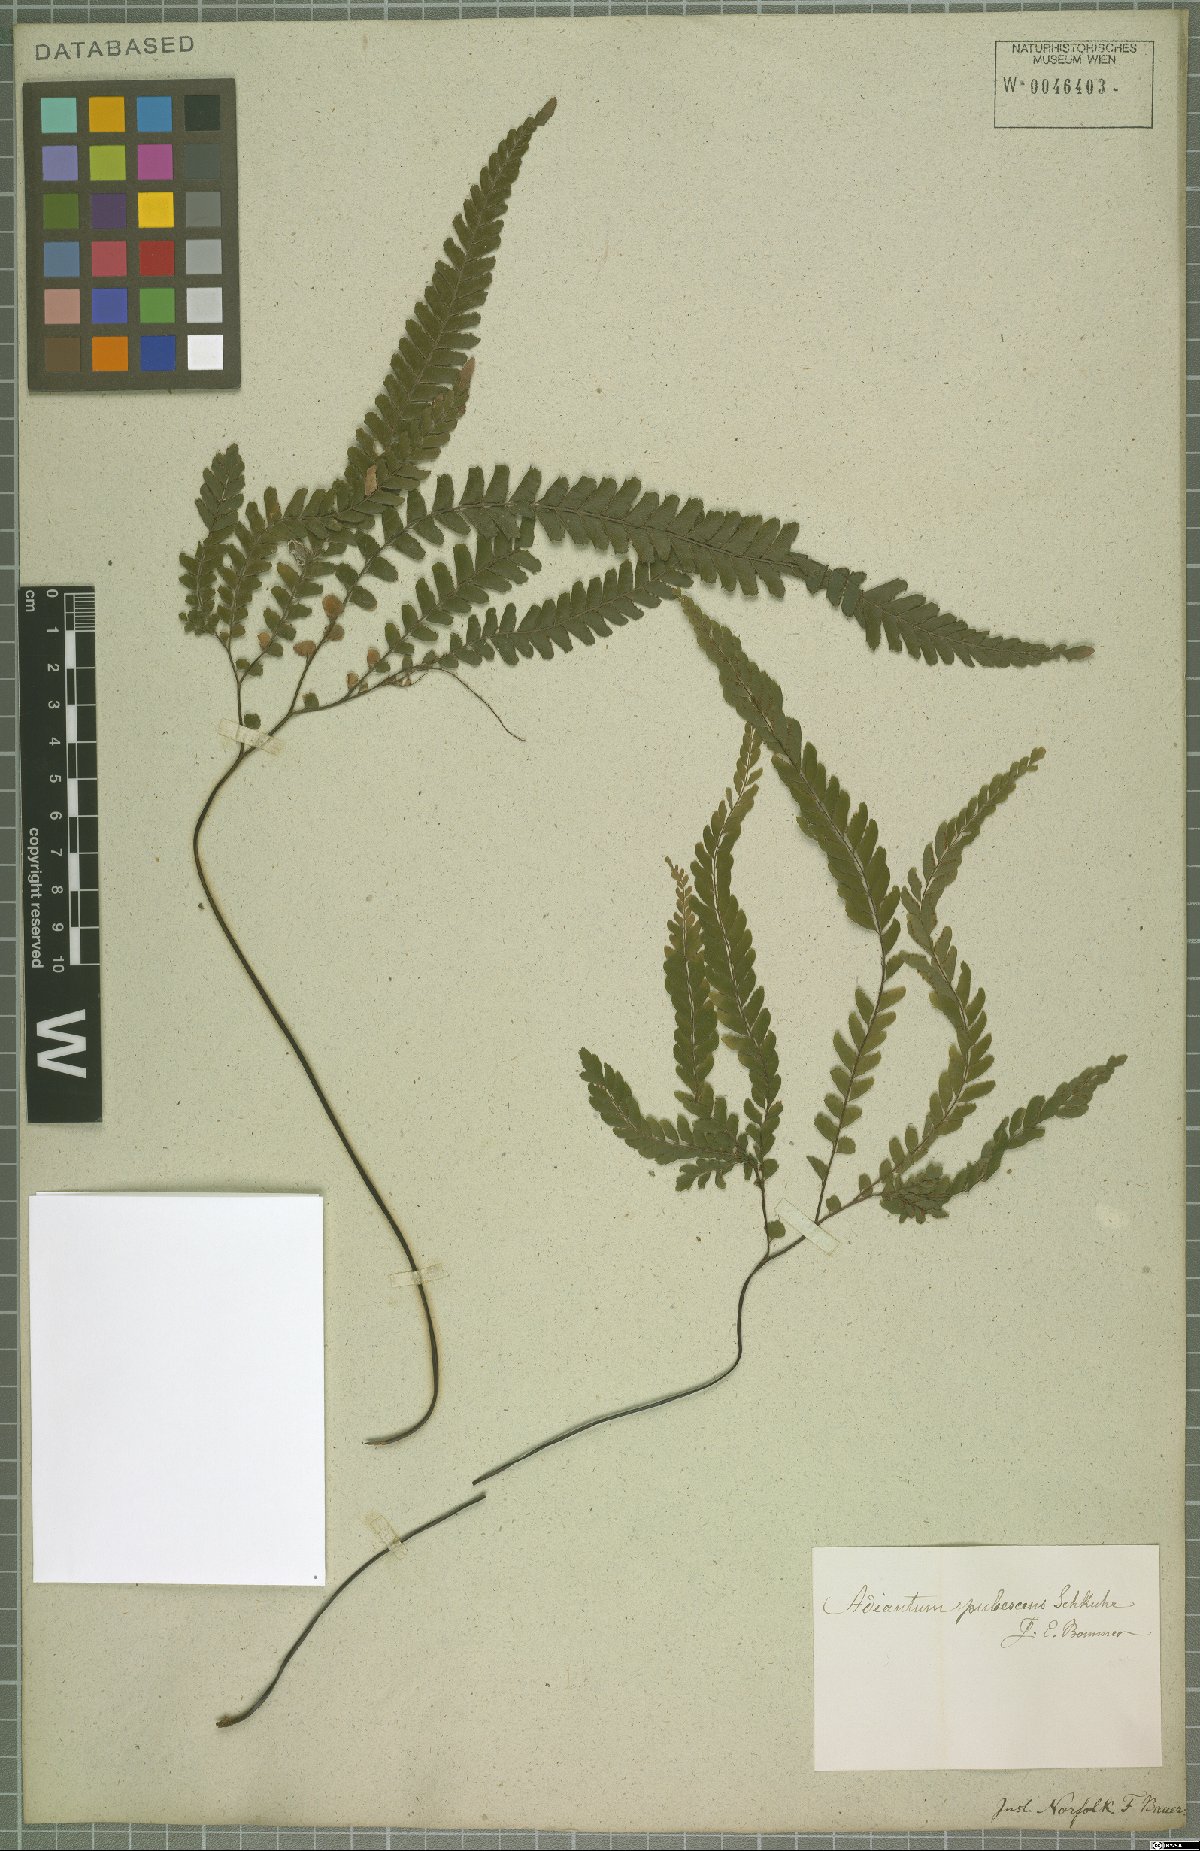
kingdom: Plantae
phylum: Tracheophyta
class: Polypodiopsida
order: Polypodiales
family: Pteridaceae
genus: Adiantum
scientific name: Adiantum hispidulum
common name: Rough maidenhair
